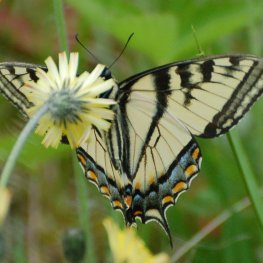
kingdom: Animalia
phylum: Arthropoda
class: Insecta
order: Lepidoptera
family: Papilionidae
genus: Pterourus
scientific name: Pterourus canadensis
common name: Canadian Tiger Swallowtail
